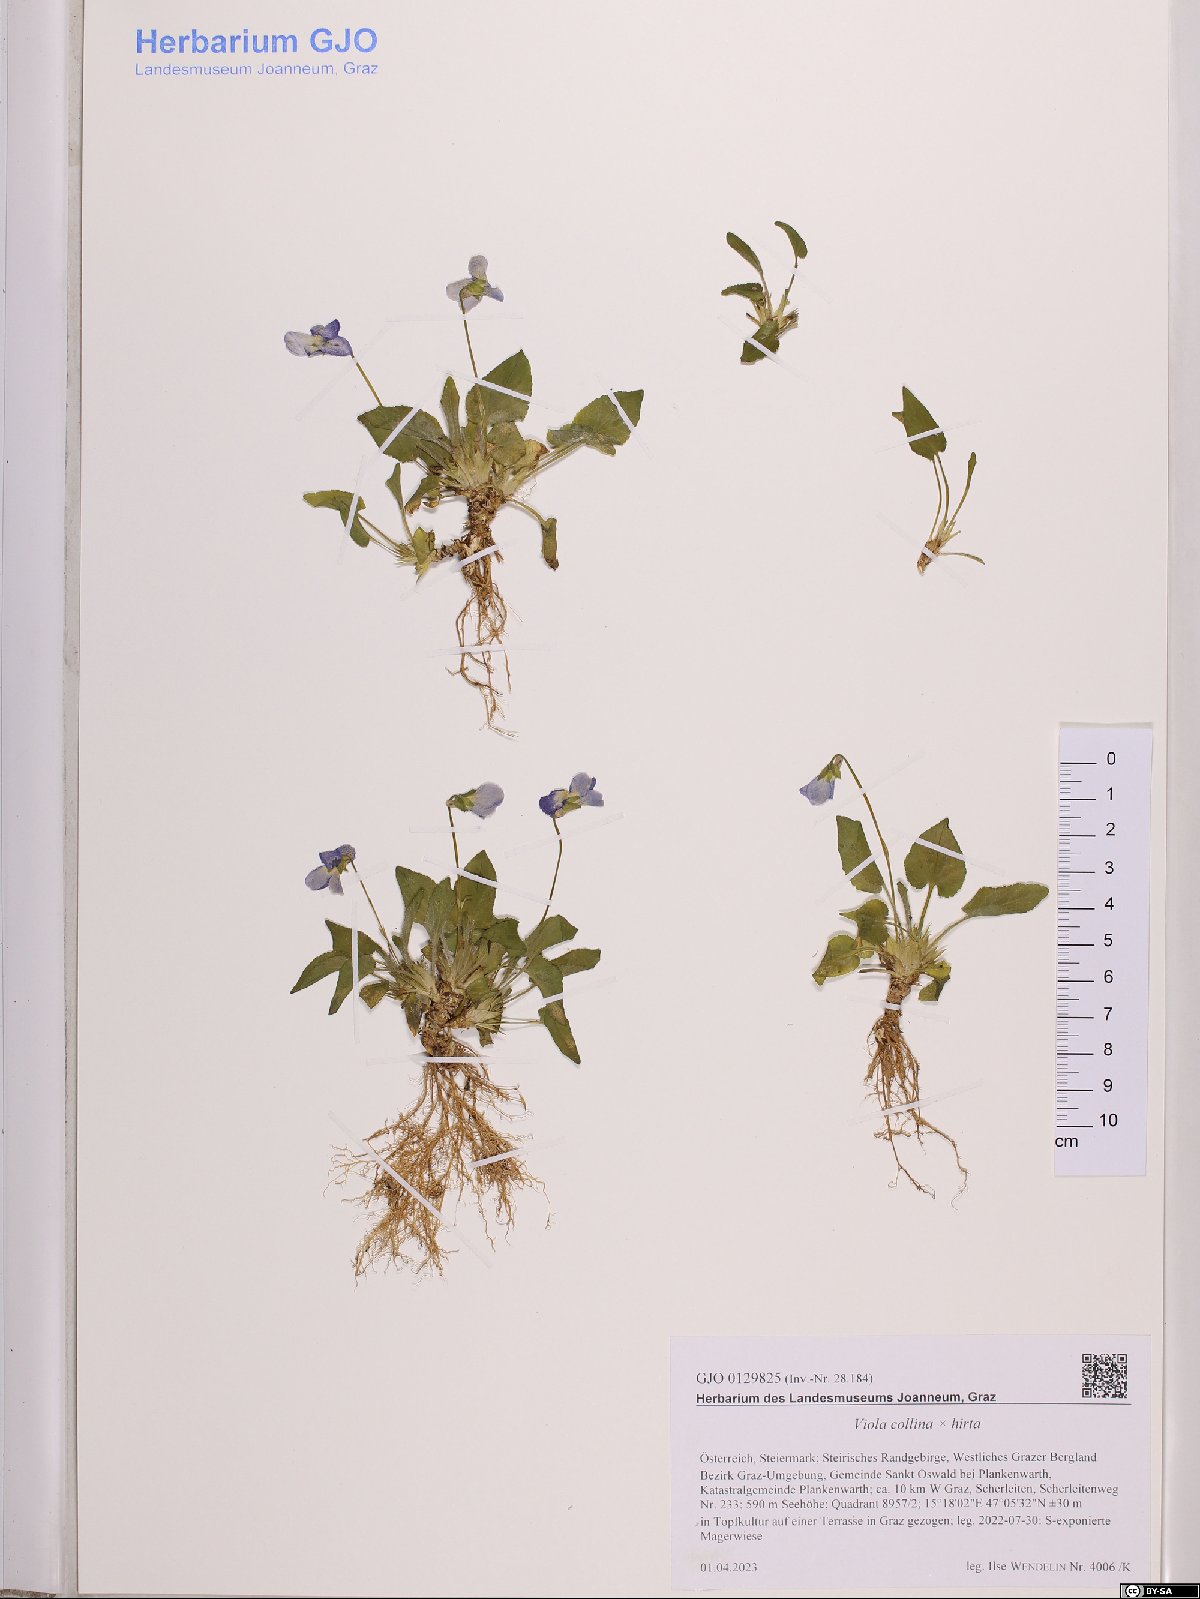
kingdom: Plantae
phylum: Tracheophyta
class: Magnoliopsida
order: Malpighiales
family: Violaceae
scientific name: Violaceae
